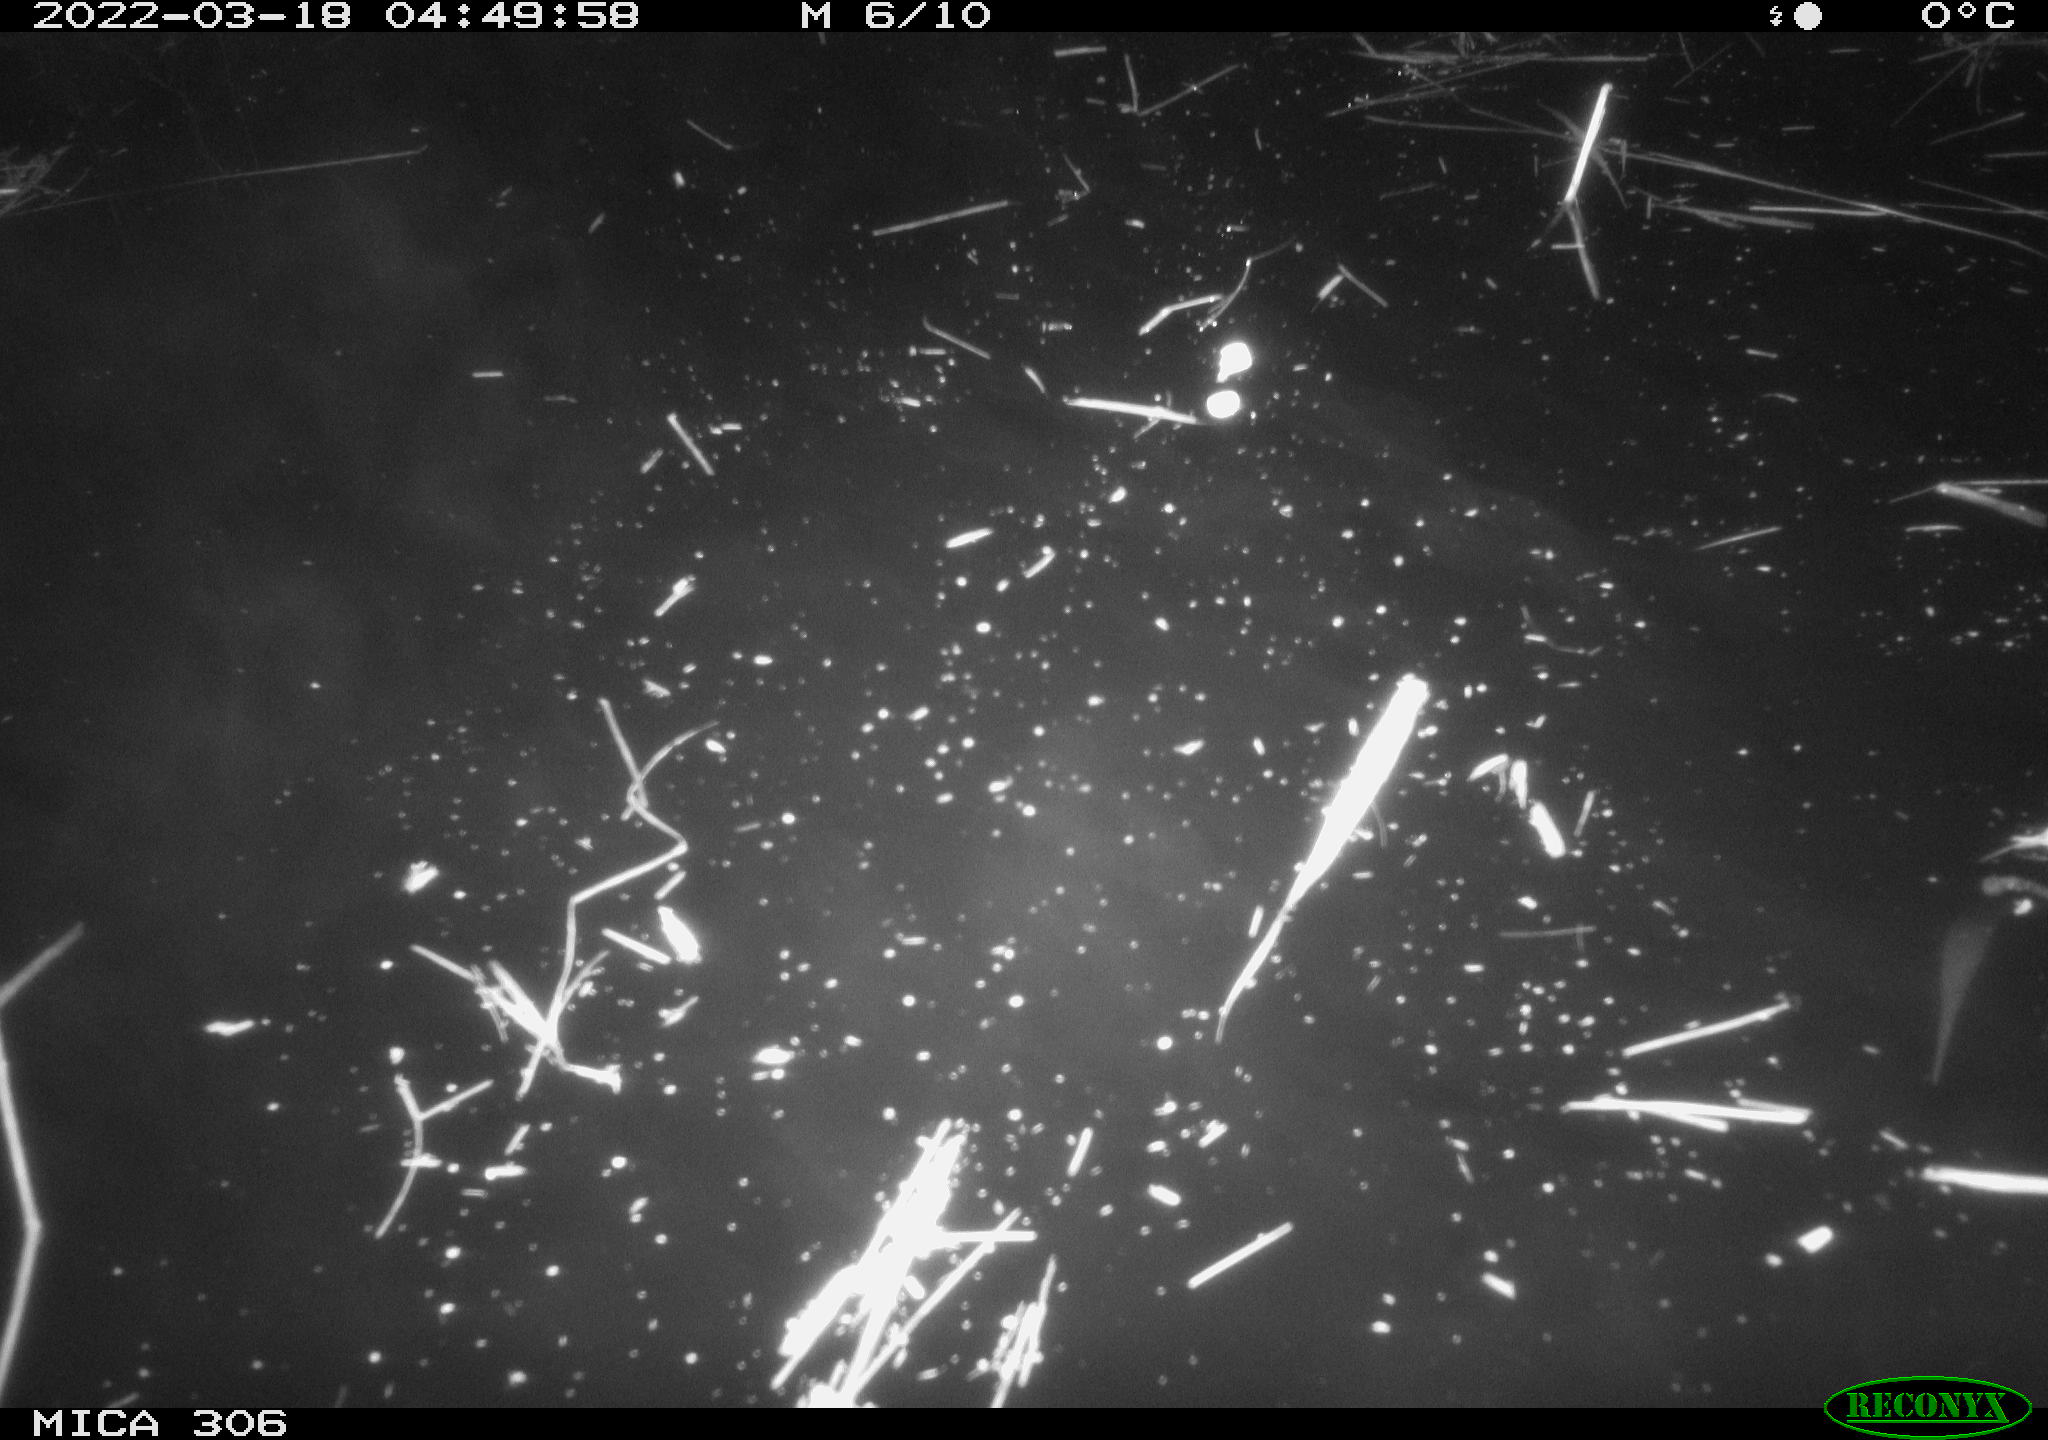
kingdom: Animalia
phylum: Chordata
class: Aves
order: Anseriformes
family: Anatidae
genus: Anas
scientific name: Anas platyrhynchos
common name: Mallard
